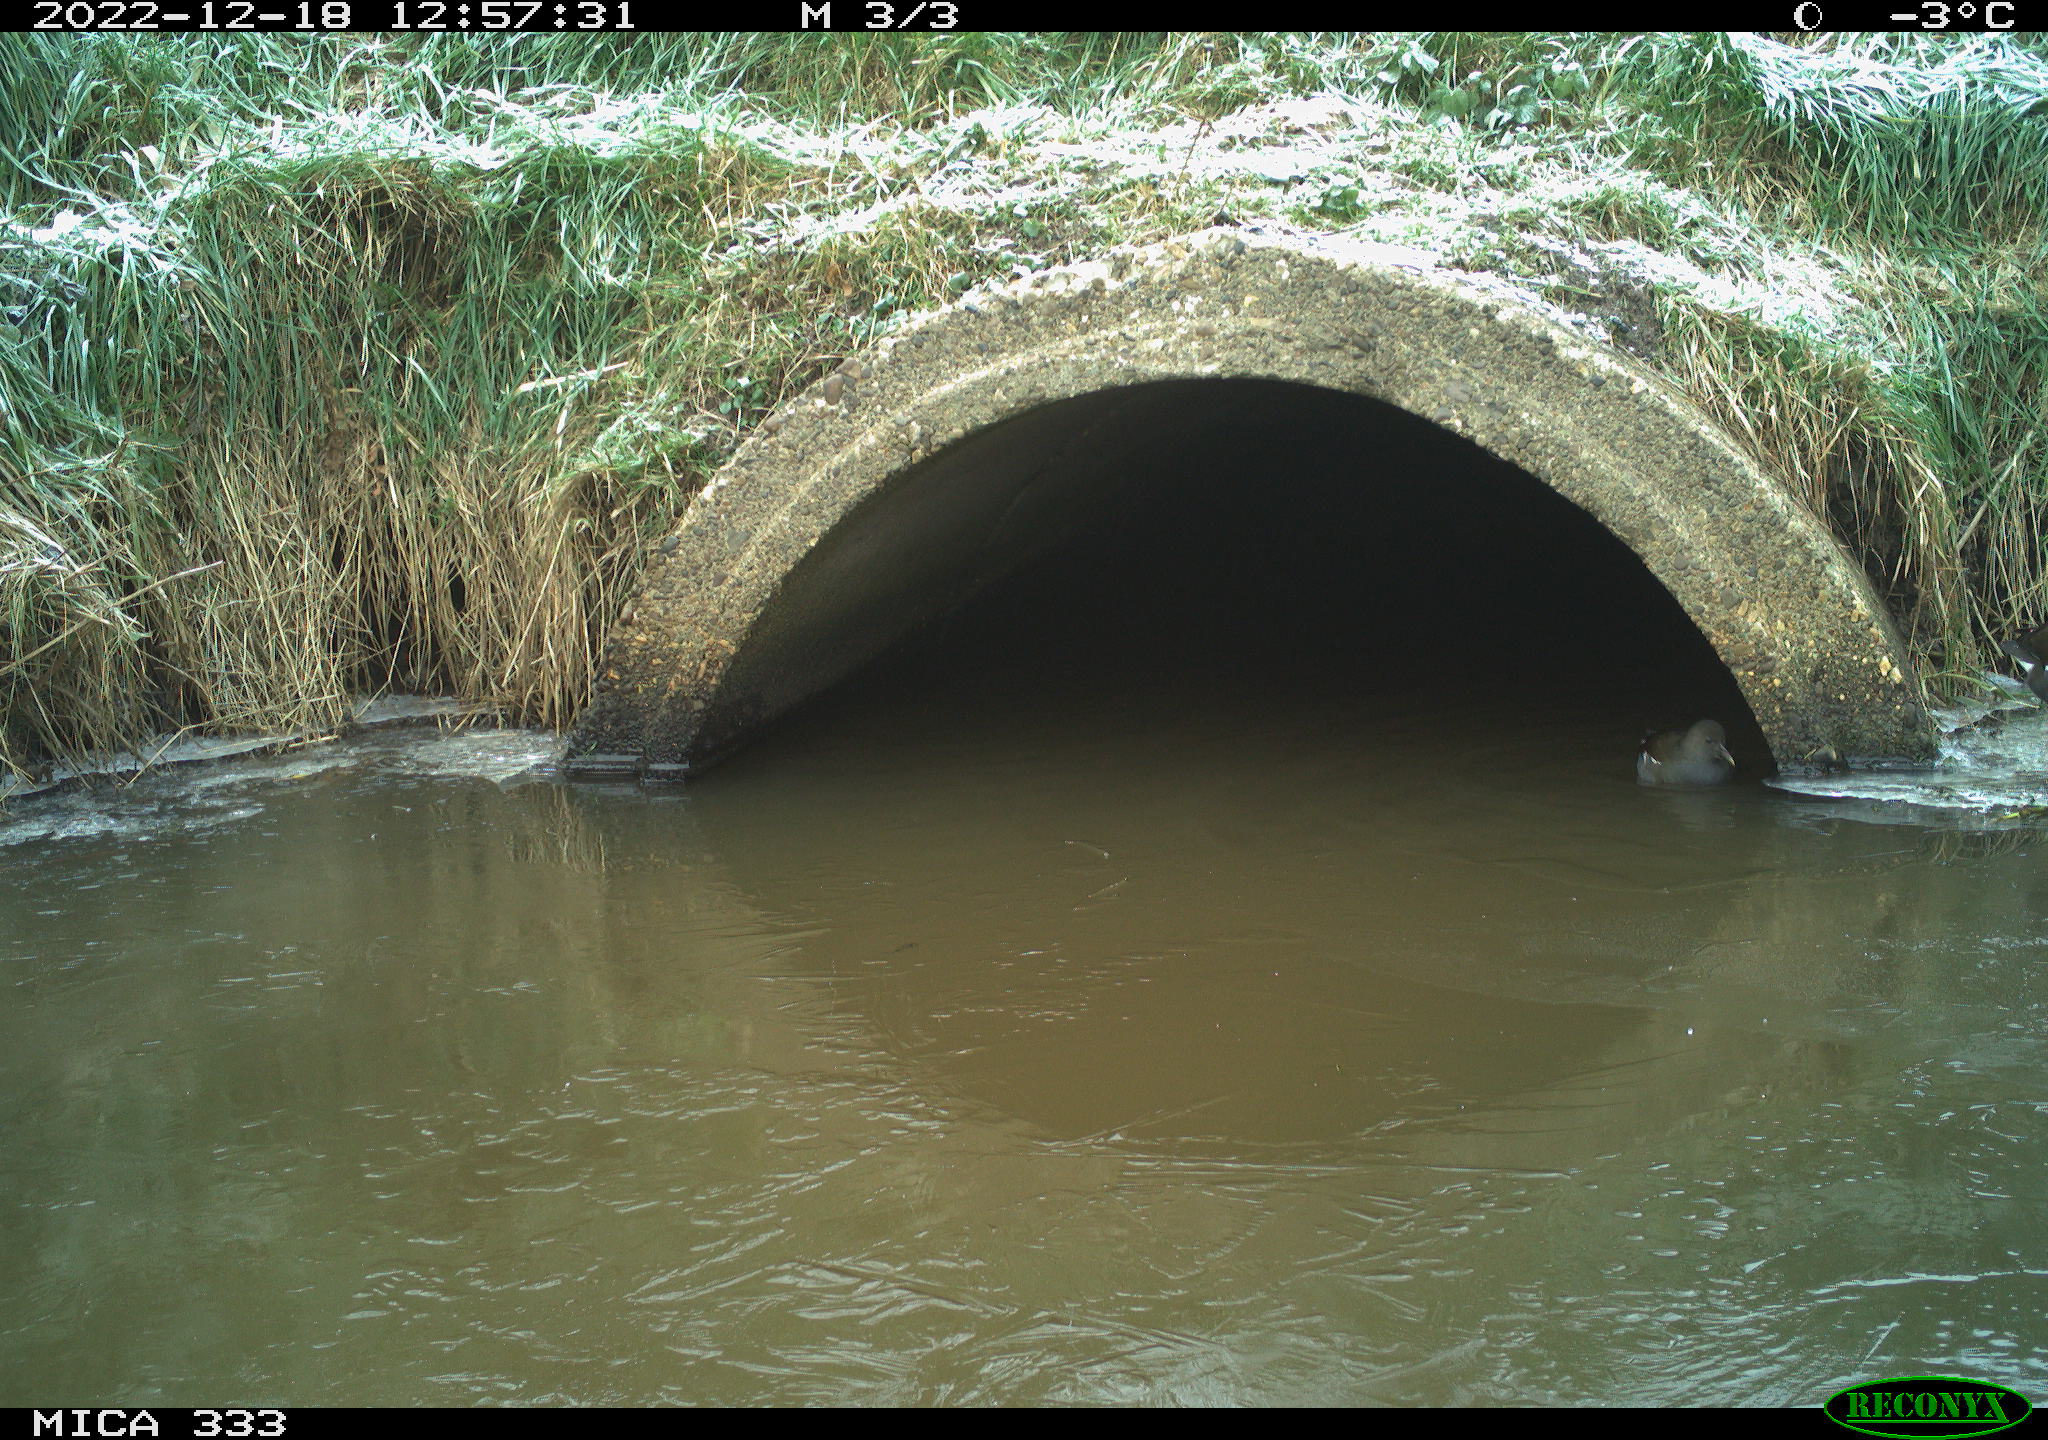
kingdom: Animalia
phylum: Chordata
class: Aves
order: Gruiformes
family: Rallidae
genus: Gallinula
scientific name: Gallinula chloropus
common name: Common moorhen
